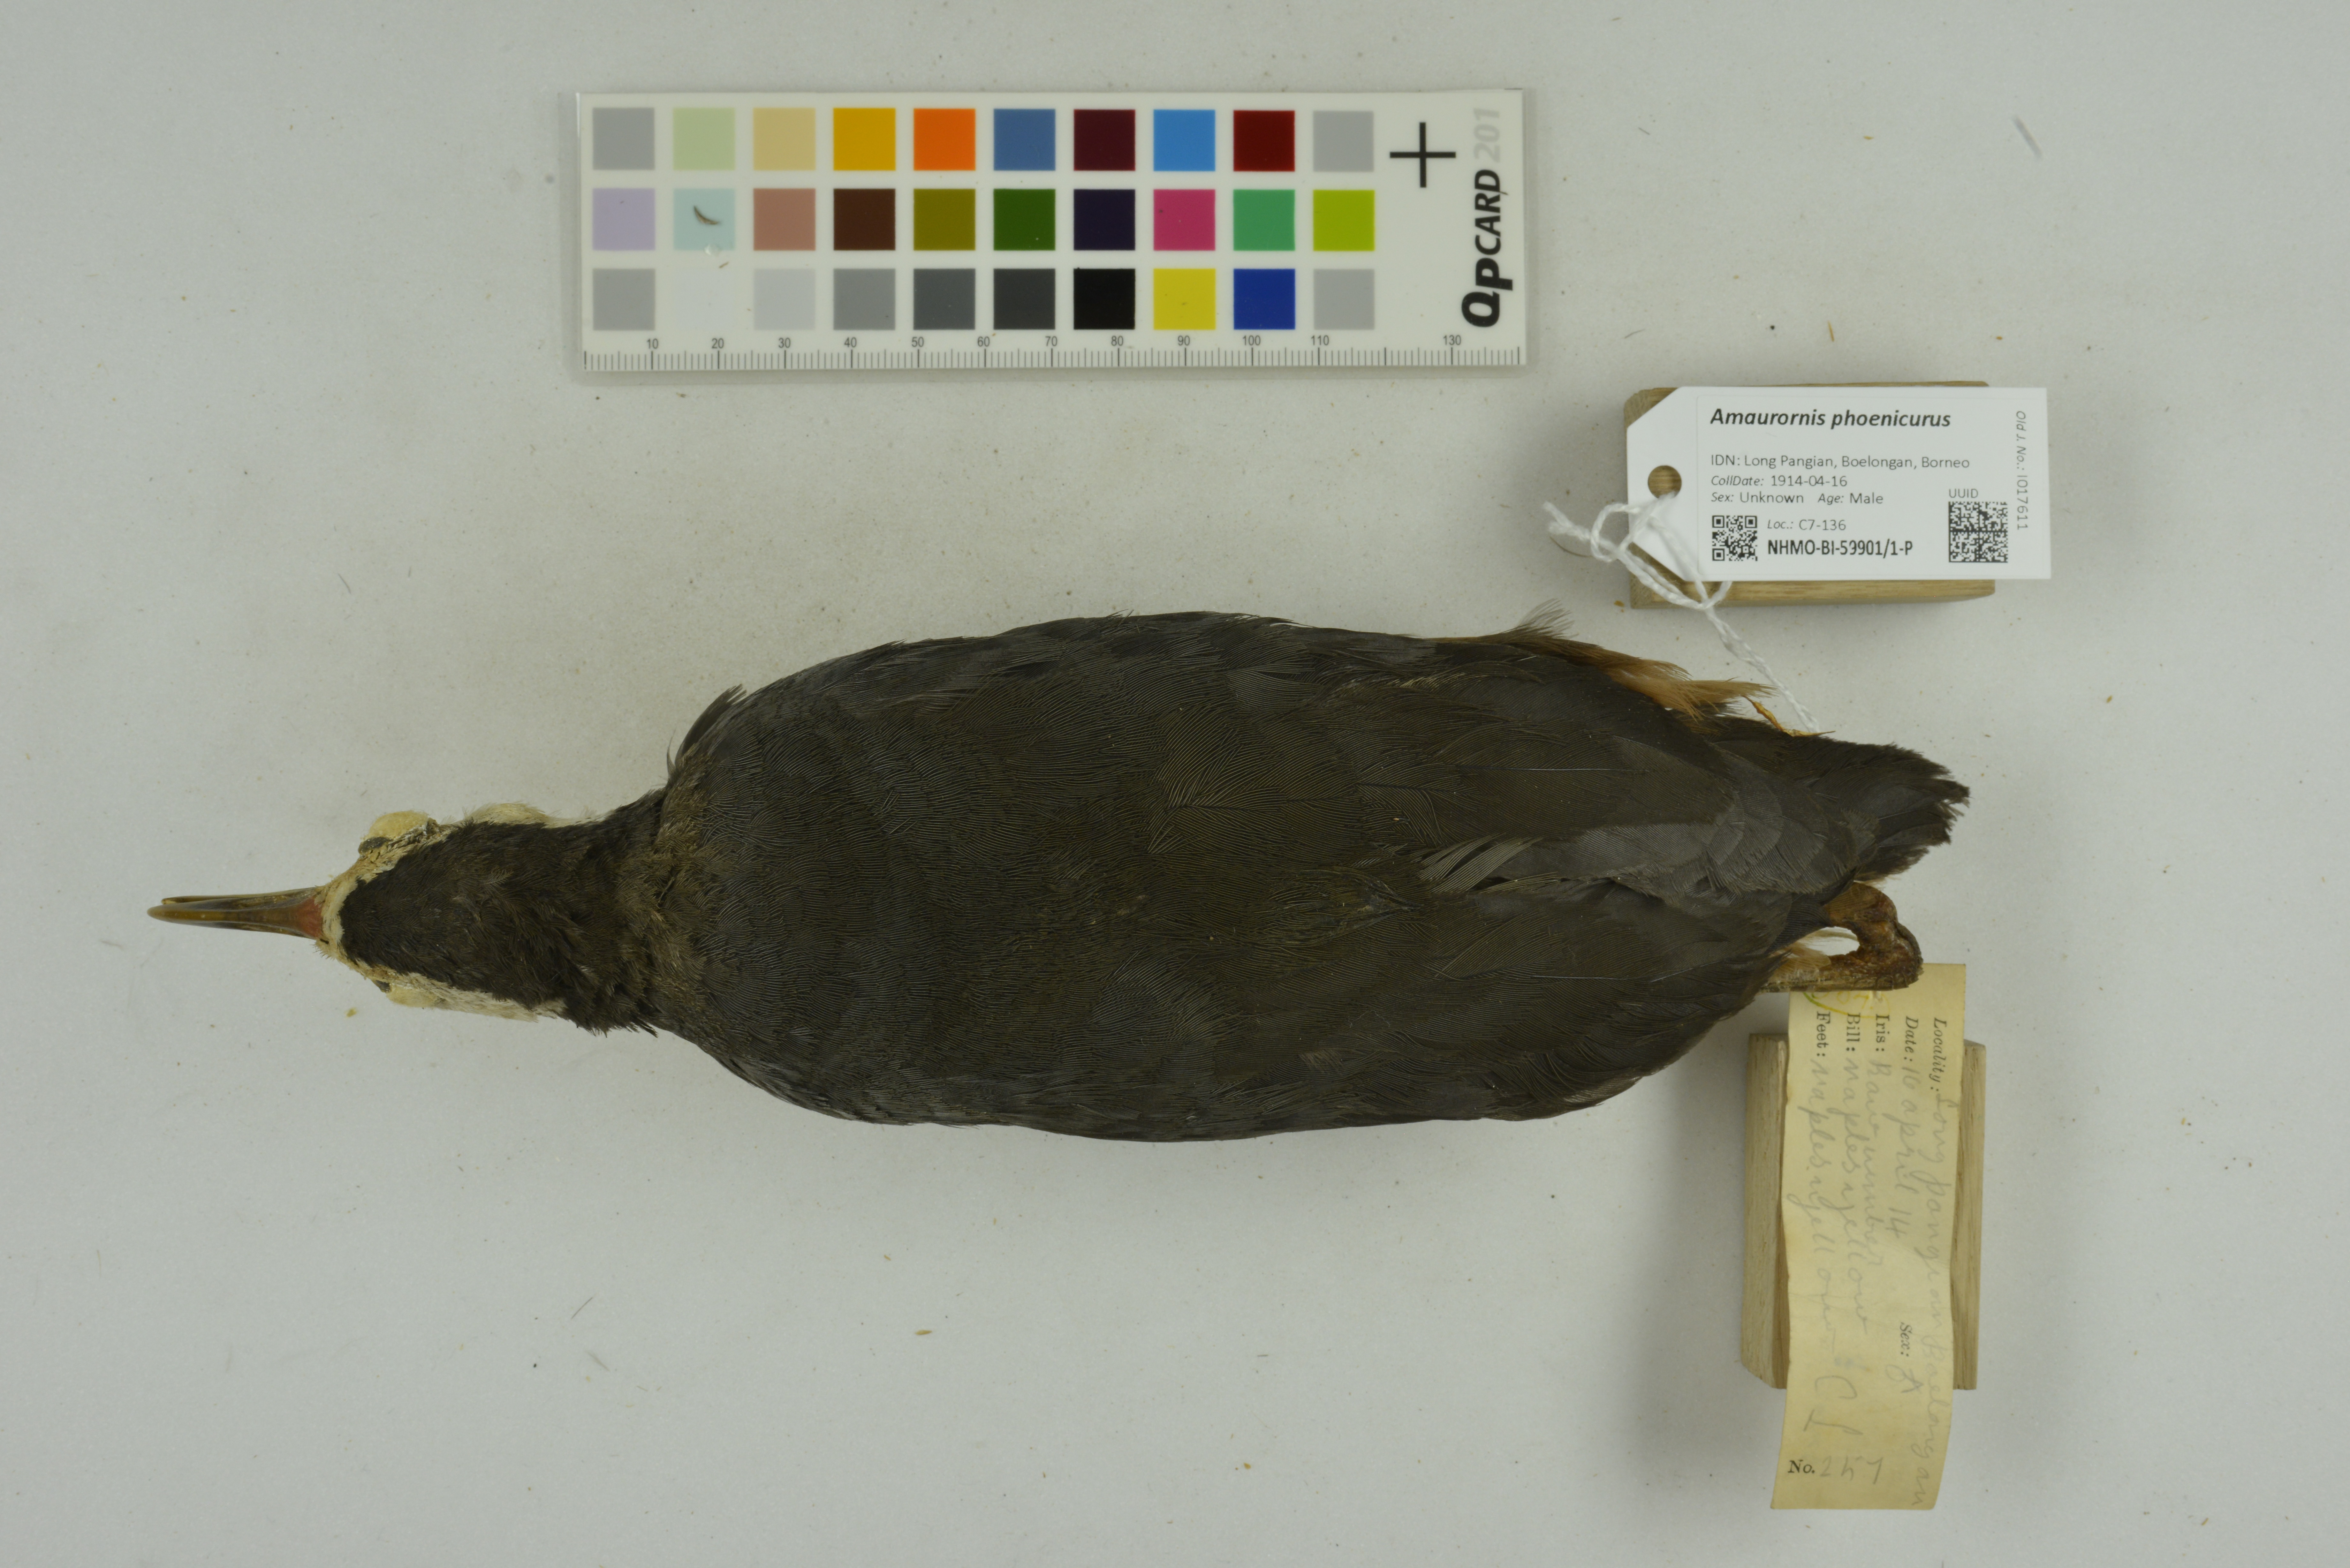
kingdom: Animalia
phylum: Chordata
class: Aves
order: Gruiformes
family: Rallidae
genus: Amaurornis
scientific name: Amaurornis phoenicurus
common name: White-breasted waterhen
